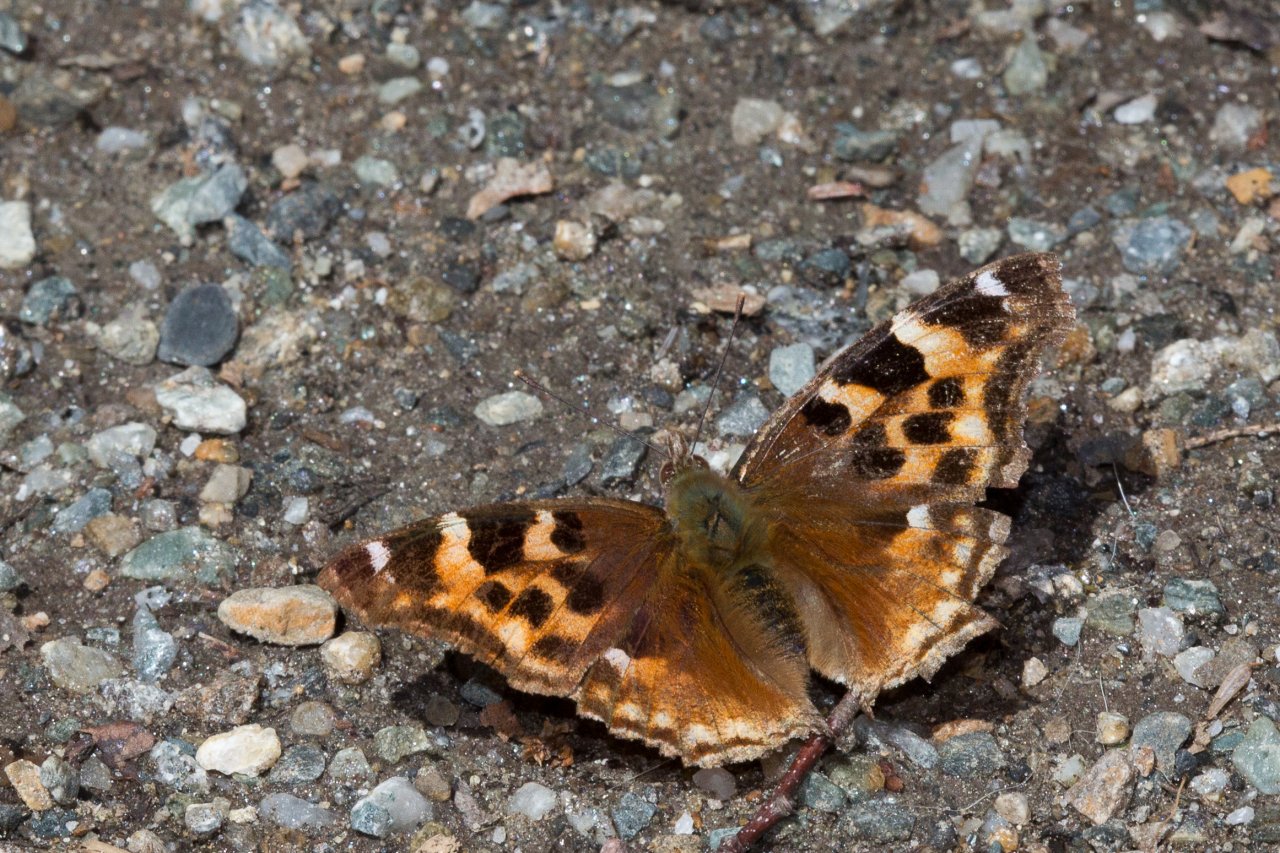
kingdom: Animalia
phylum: Arthropoda
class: Insecta
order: Lepidoptera
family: Nymphalidae
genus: Polygonia
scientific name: Polygonia vaualbum
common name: Compton Tortoiseshell
